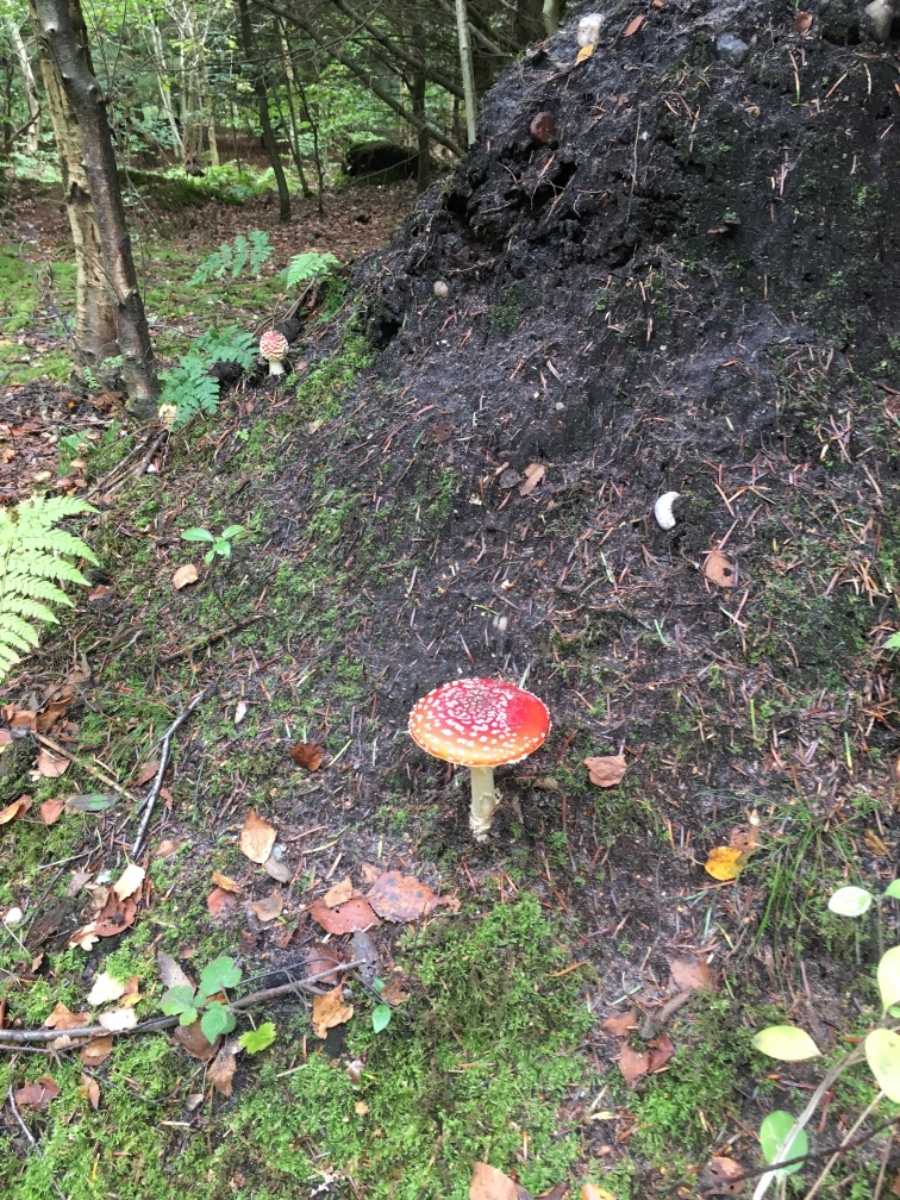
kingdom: Fungi
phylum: Basidiomycota
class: Agaricomycetes
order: Agaricales
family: Amanitaceae
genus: Amanita
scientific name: Amanita muscaria
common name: rød fluesvamp
